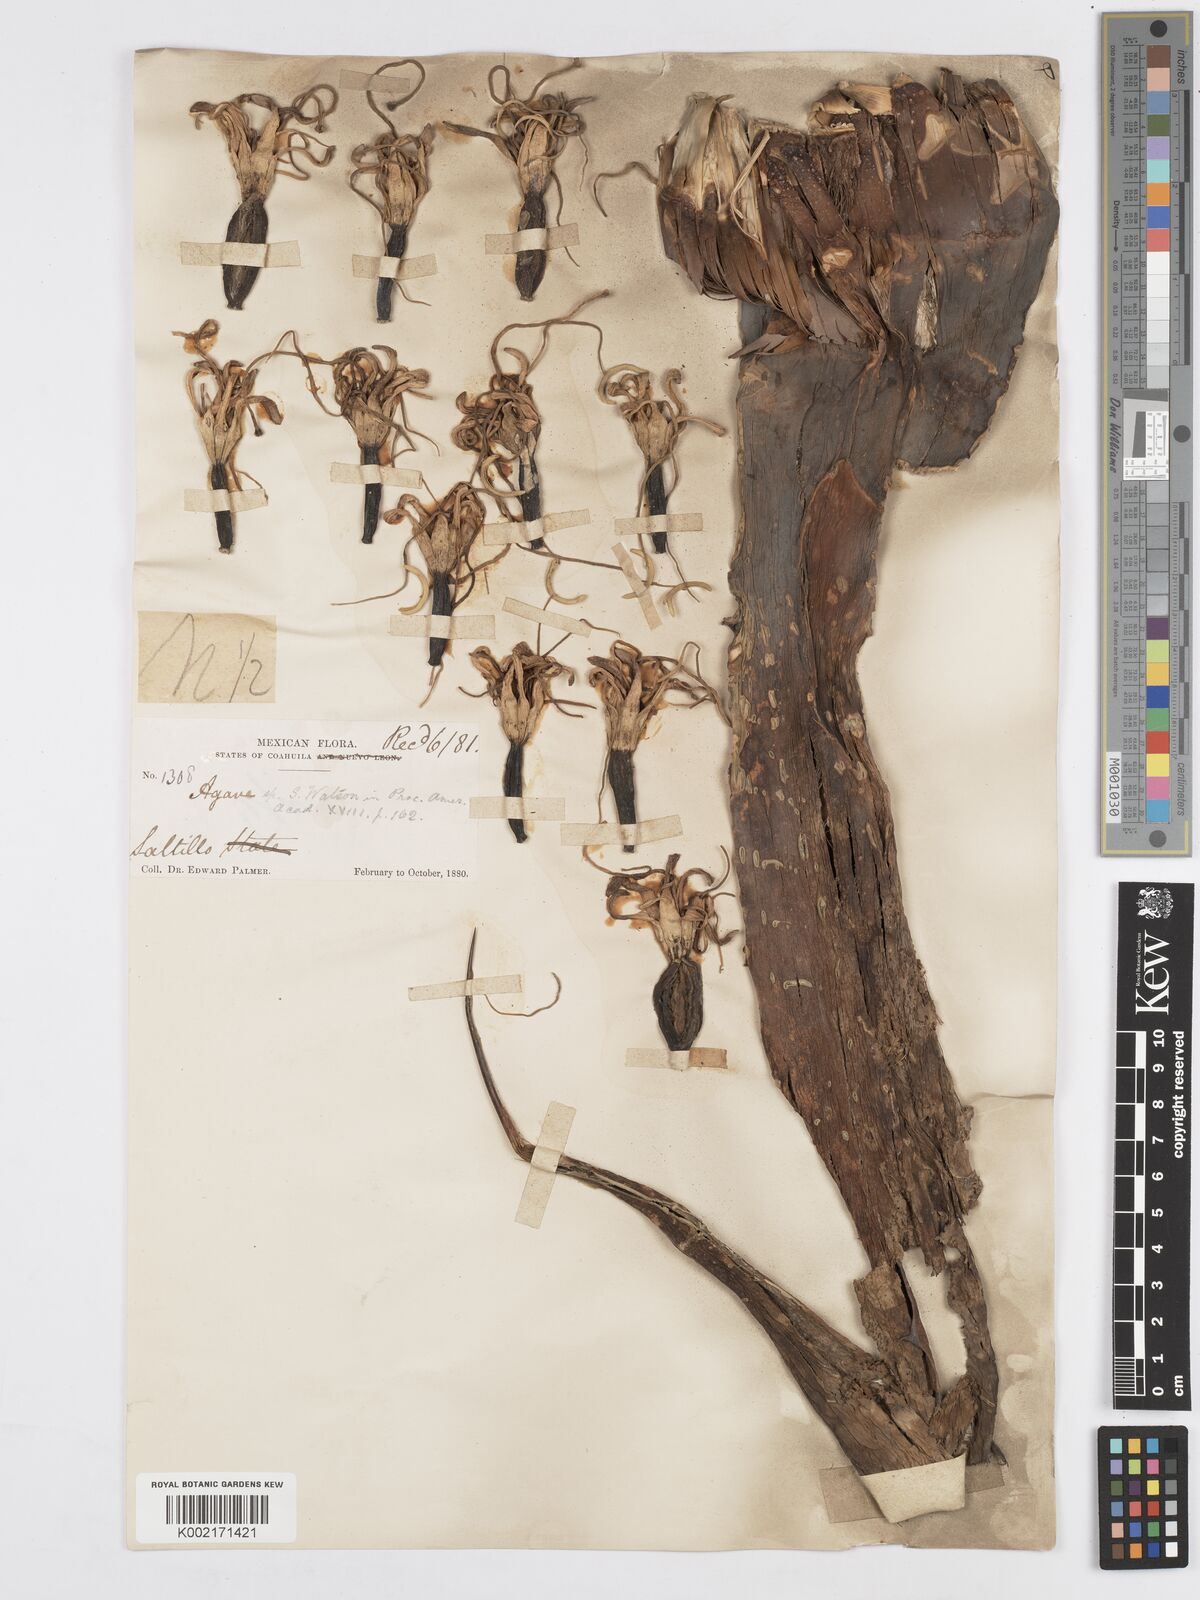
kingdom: Plantae
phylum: Tracheophyta
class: Liliopsida
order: Asparagales
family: Asparagaceae
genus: Agave
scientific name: Agave americana
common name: Centuryplant
